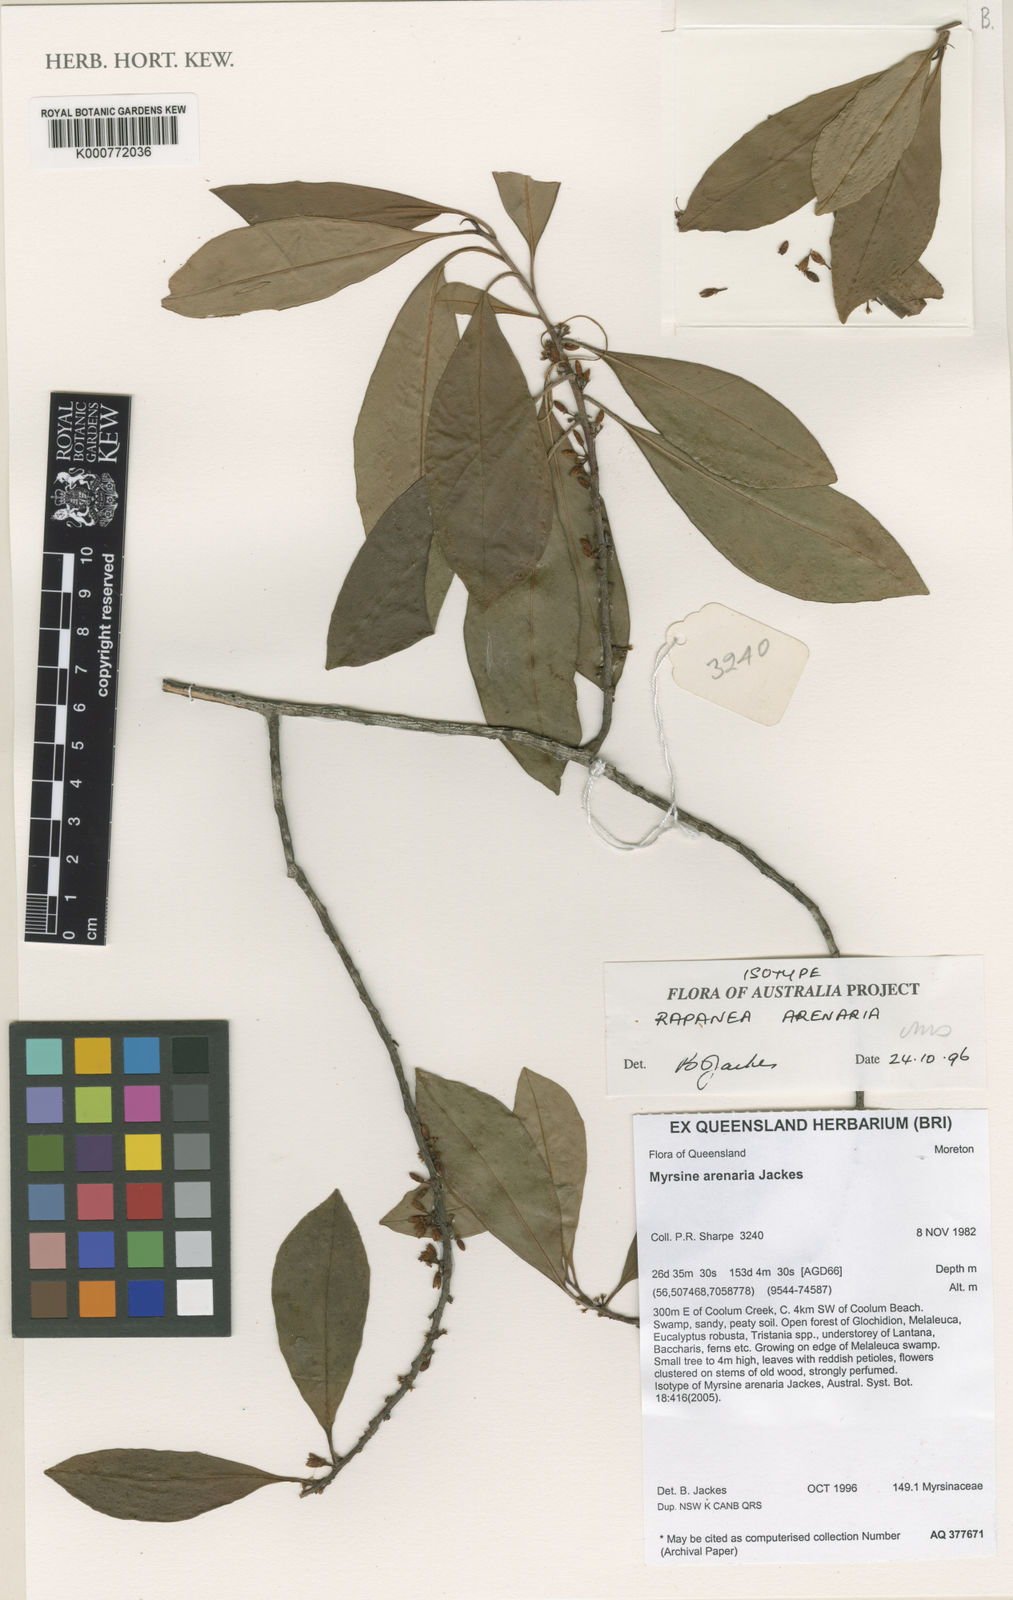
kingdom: Plantae
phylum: Tracheophyta
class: Magnoliopsida
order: Ericales
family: Primulaceae
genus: Myrsine
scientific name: Myrsine
